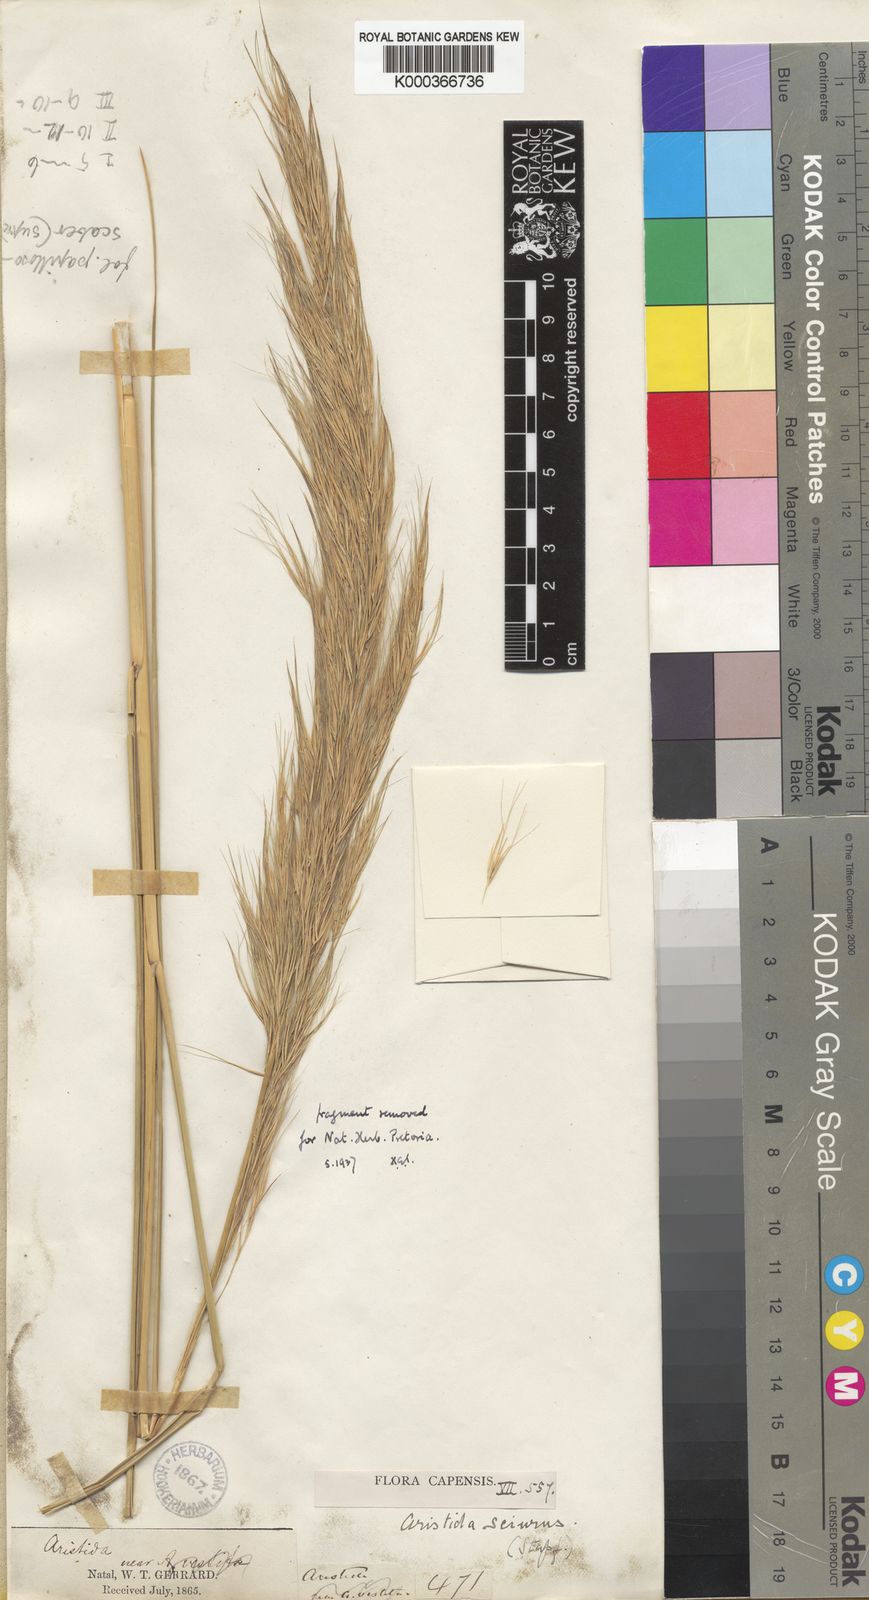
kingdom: Plantae
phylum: Tracheophyta
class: Liliopsida
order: Poales
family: Poaceae
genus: Aristida
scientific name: Aristida sciurus
